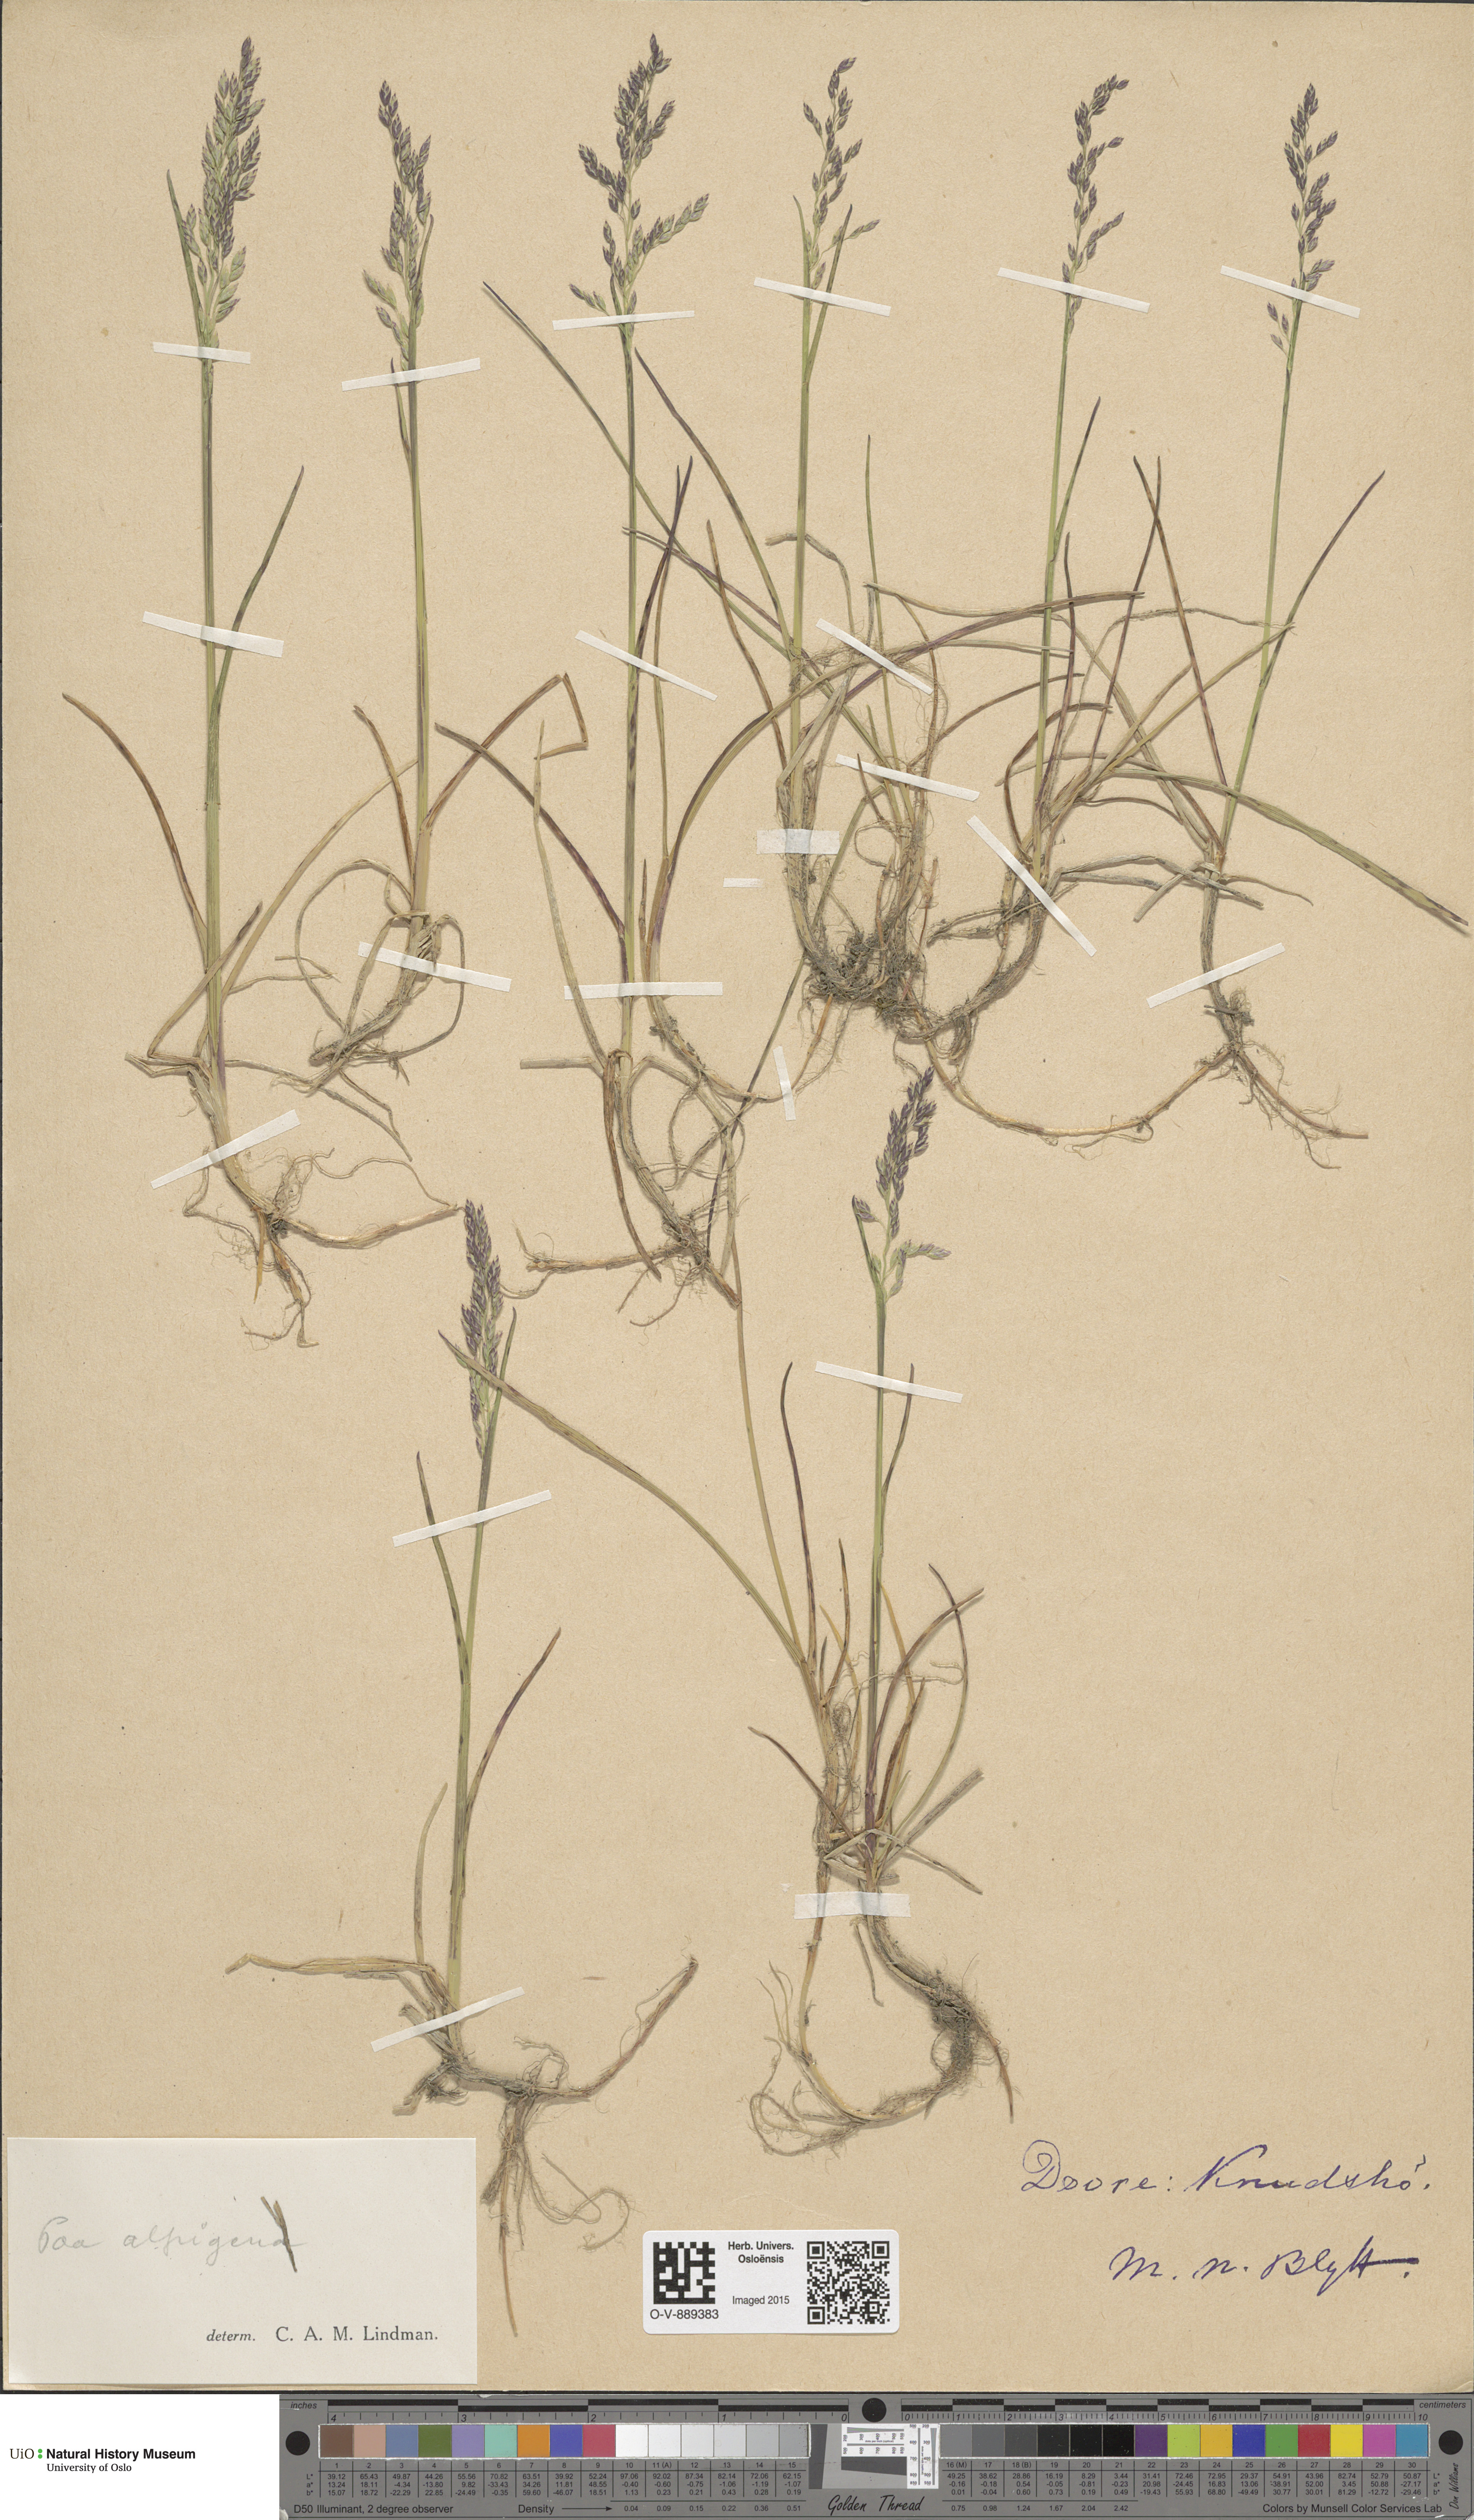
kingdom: Plantae
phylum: Tracheophyta
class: Liliopsida
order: Poales
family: Poaceae
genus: Poa
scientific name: Poa alpigena
